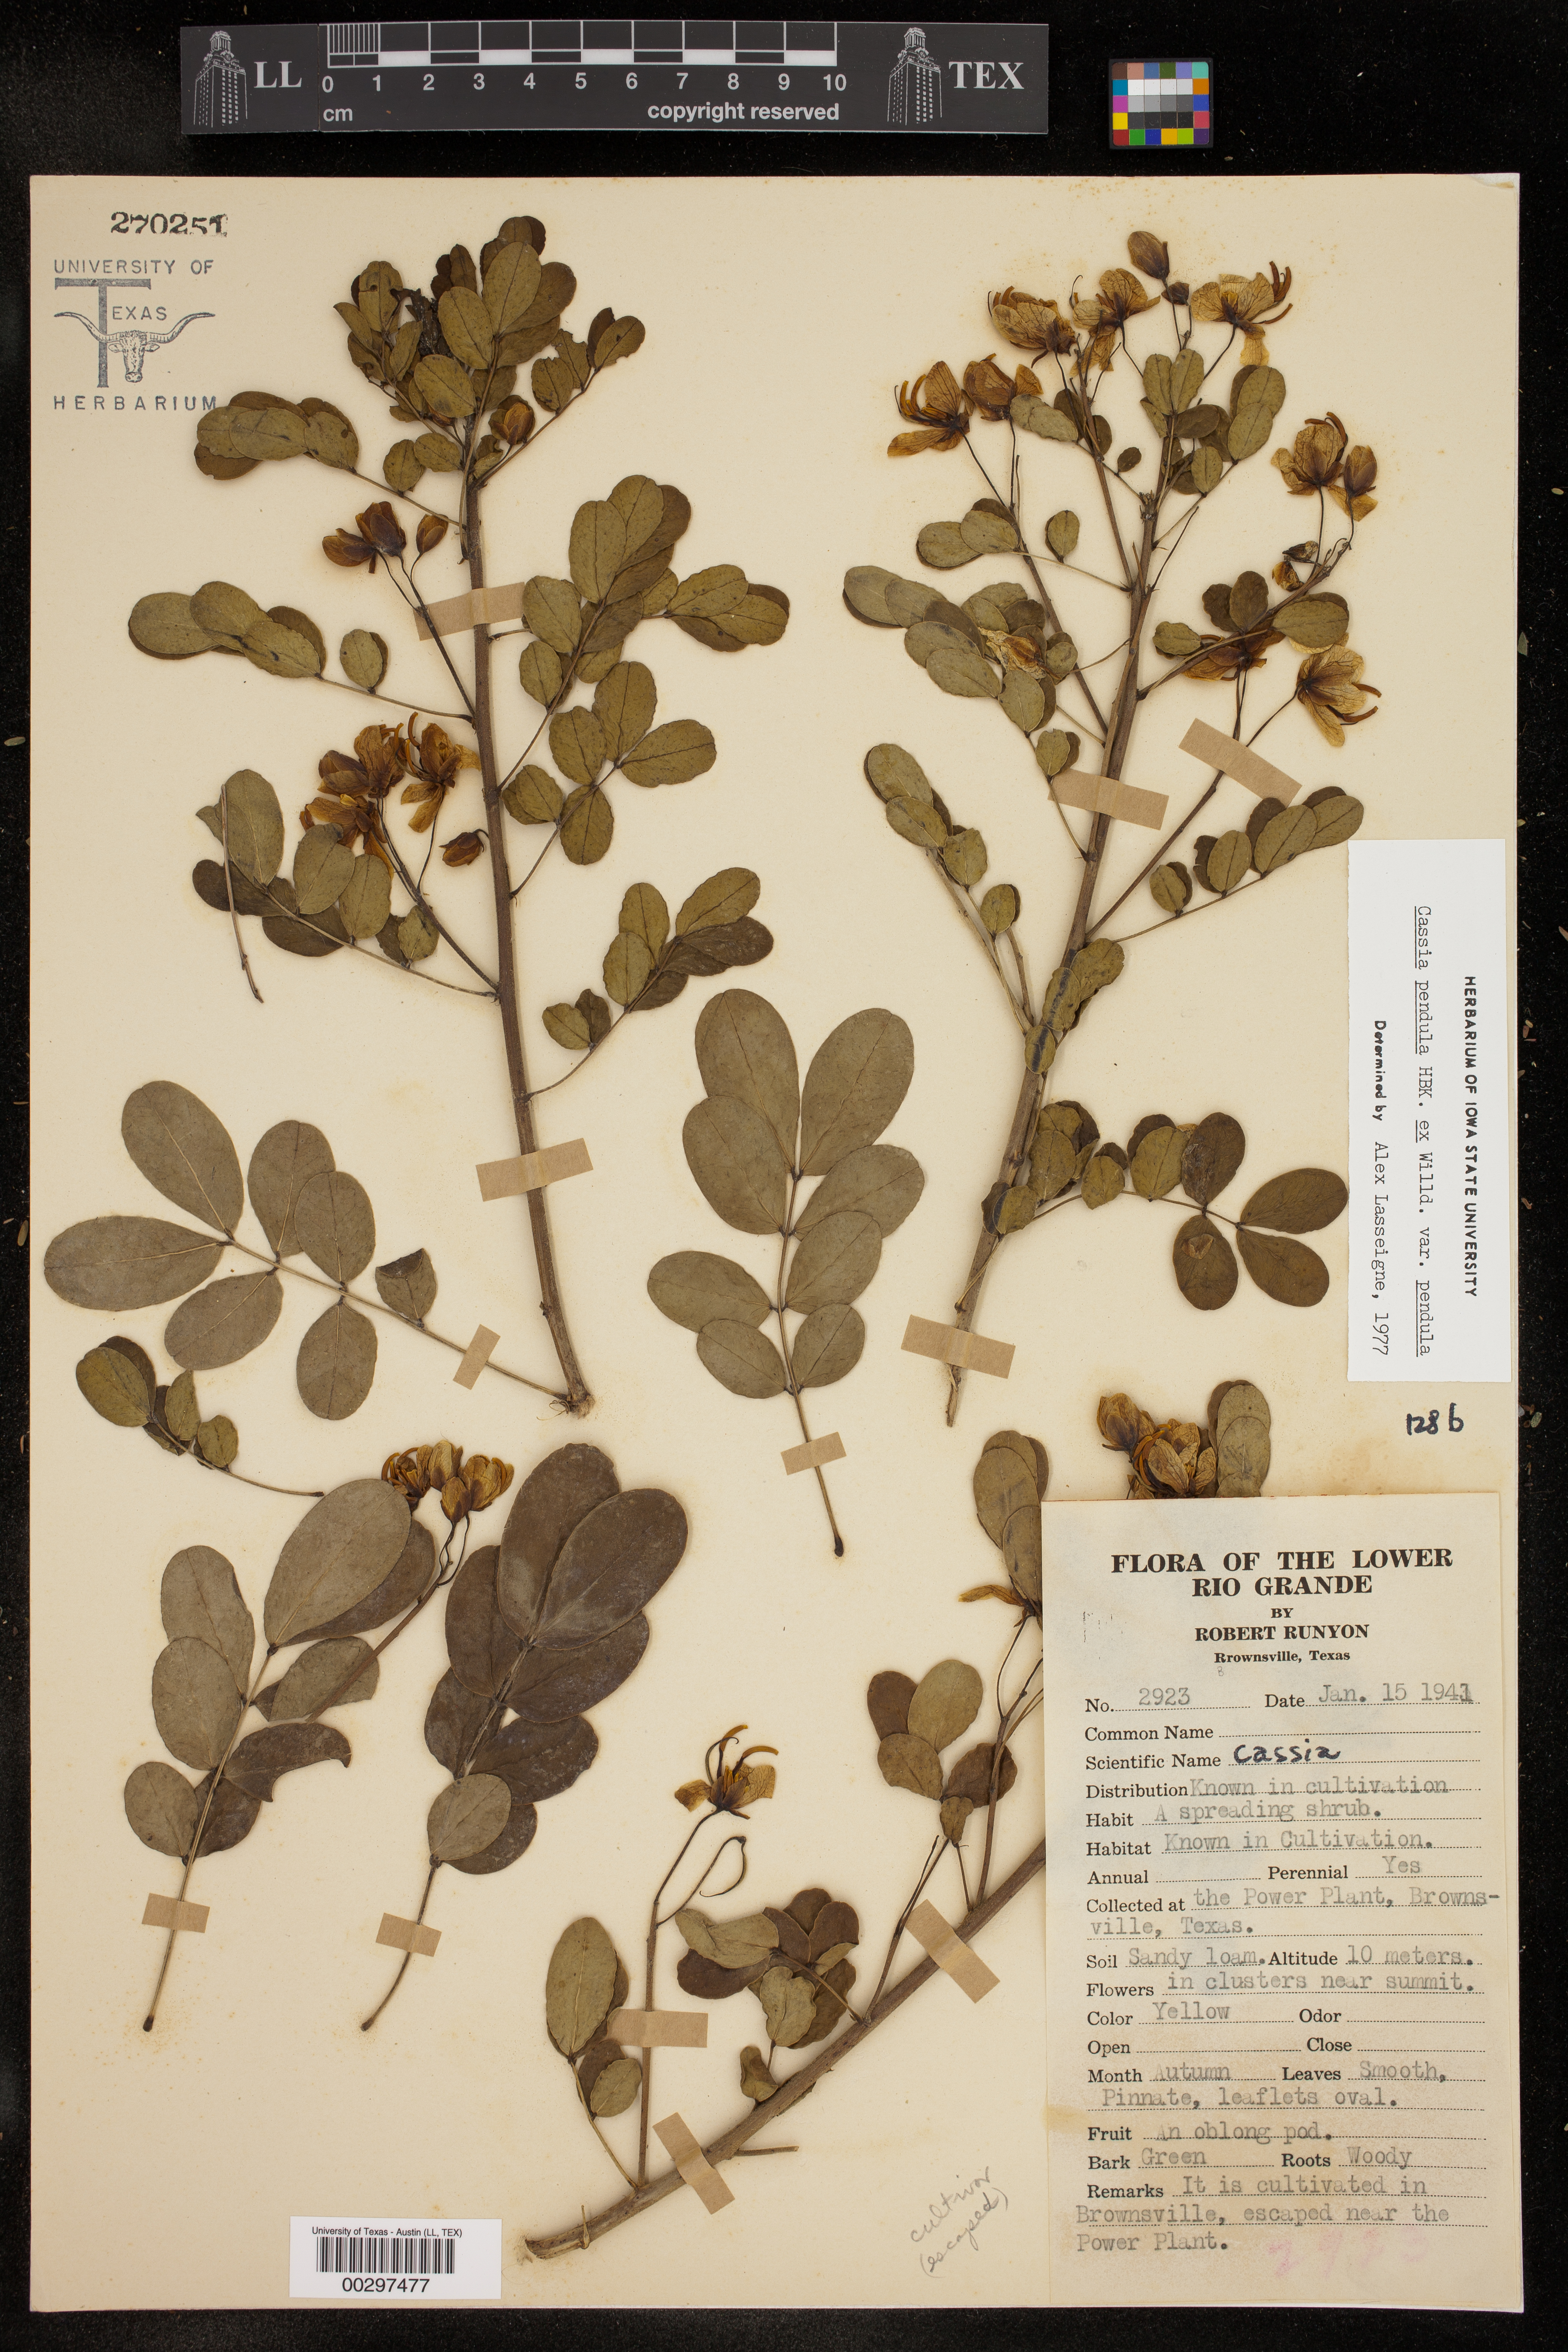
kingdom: Plantae
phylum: Tracheophyta
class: Magnoliopsida
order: Fabales
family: Fabaceae
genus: Senna
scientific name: Senna pendula
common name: Easter cassia
